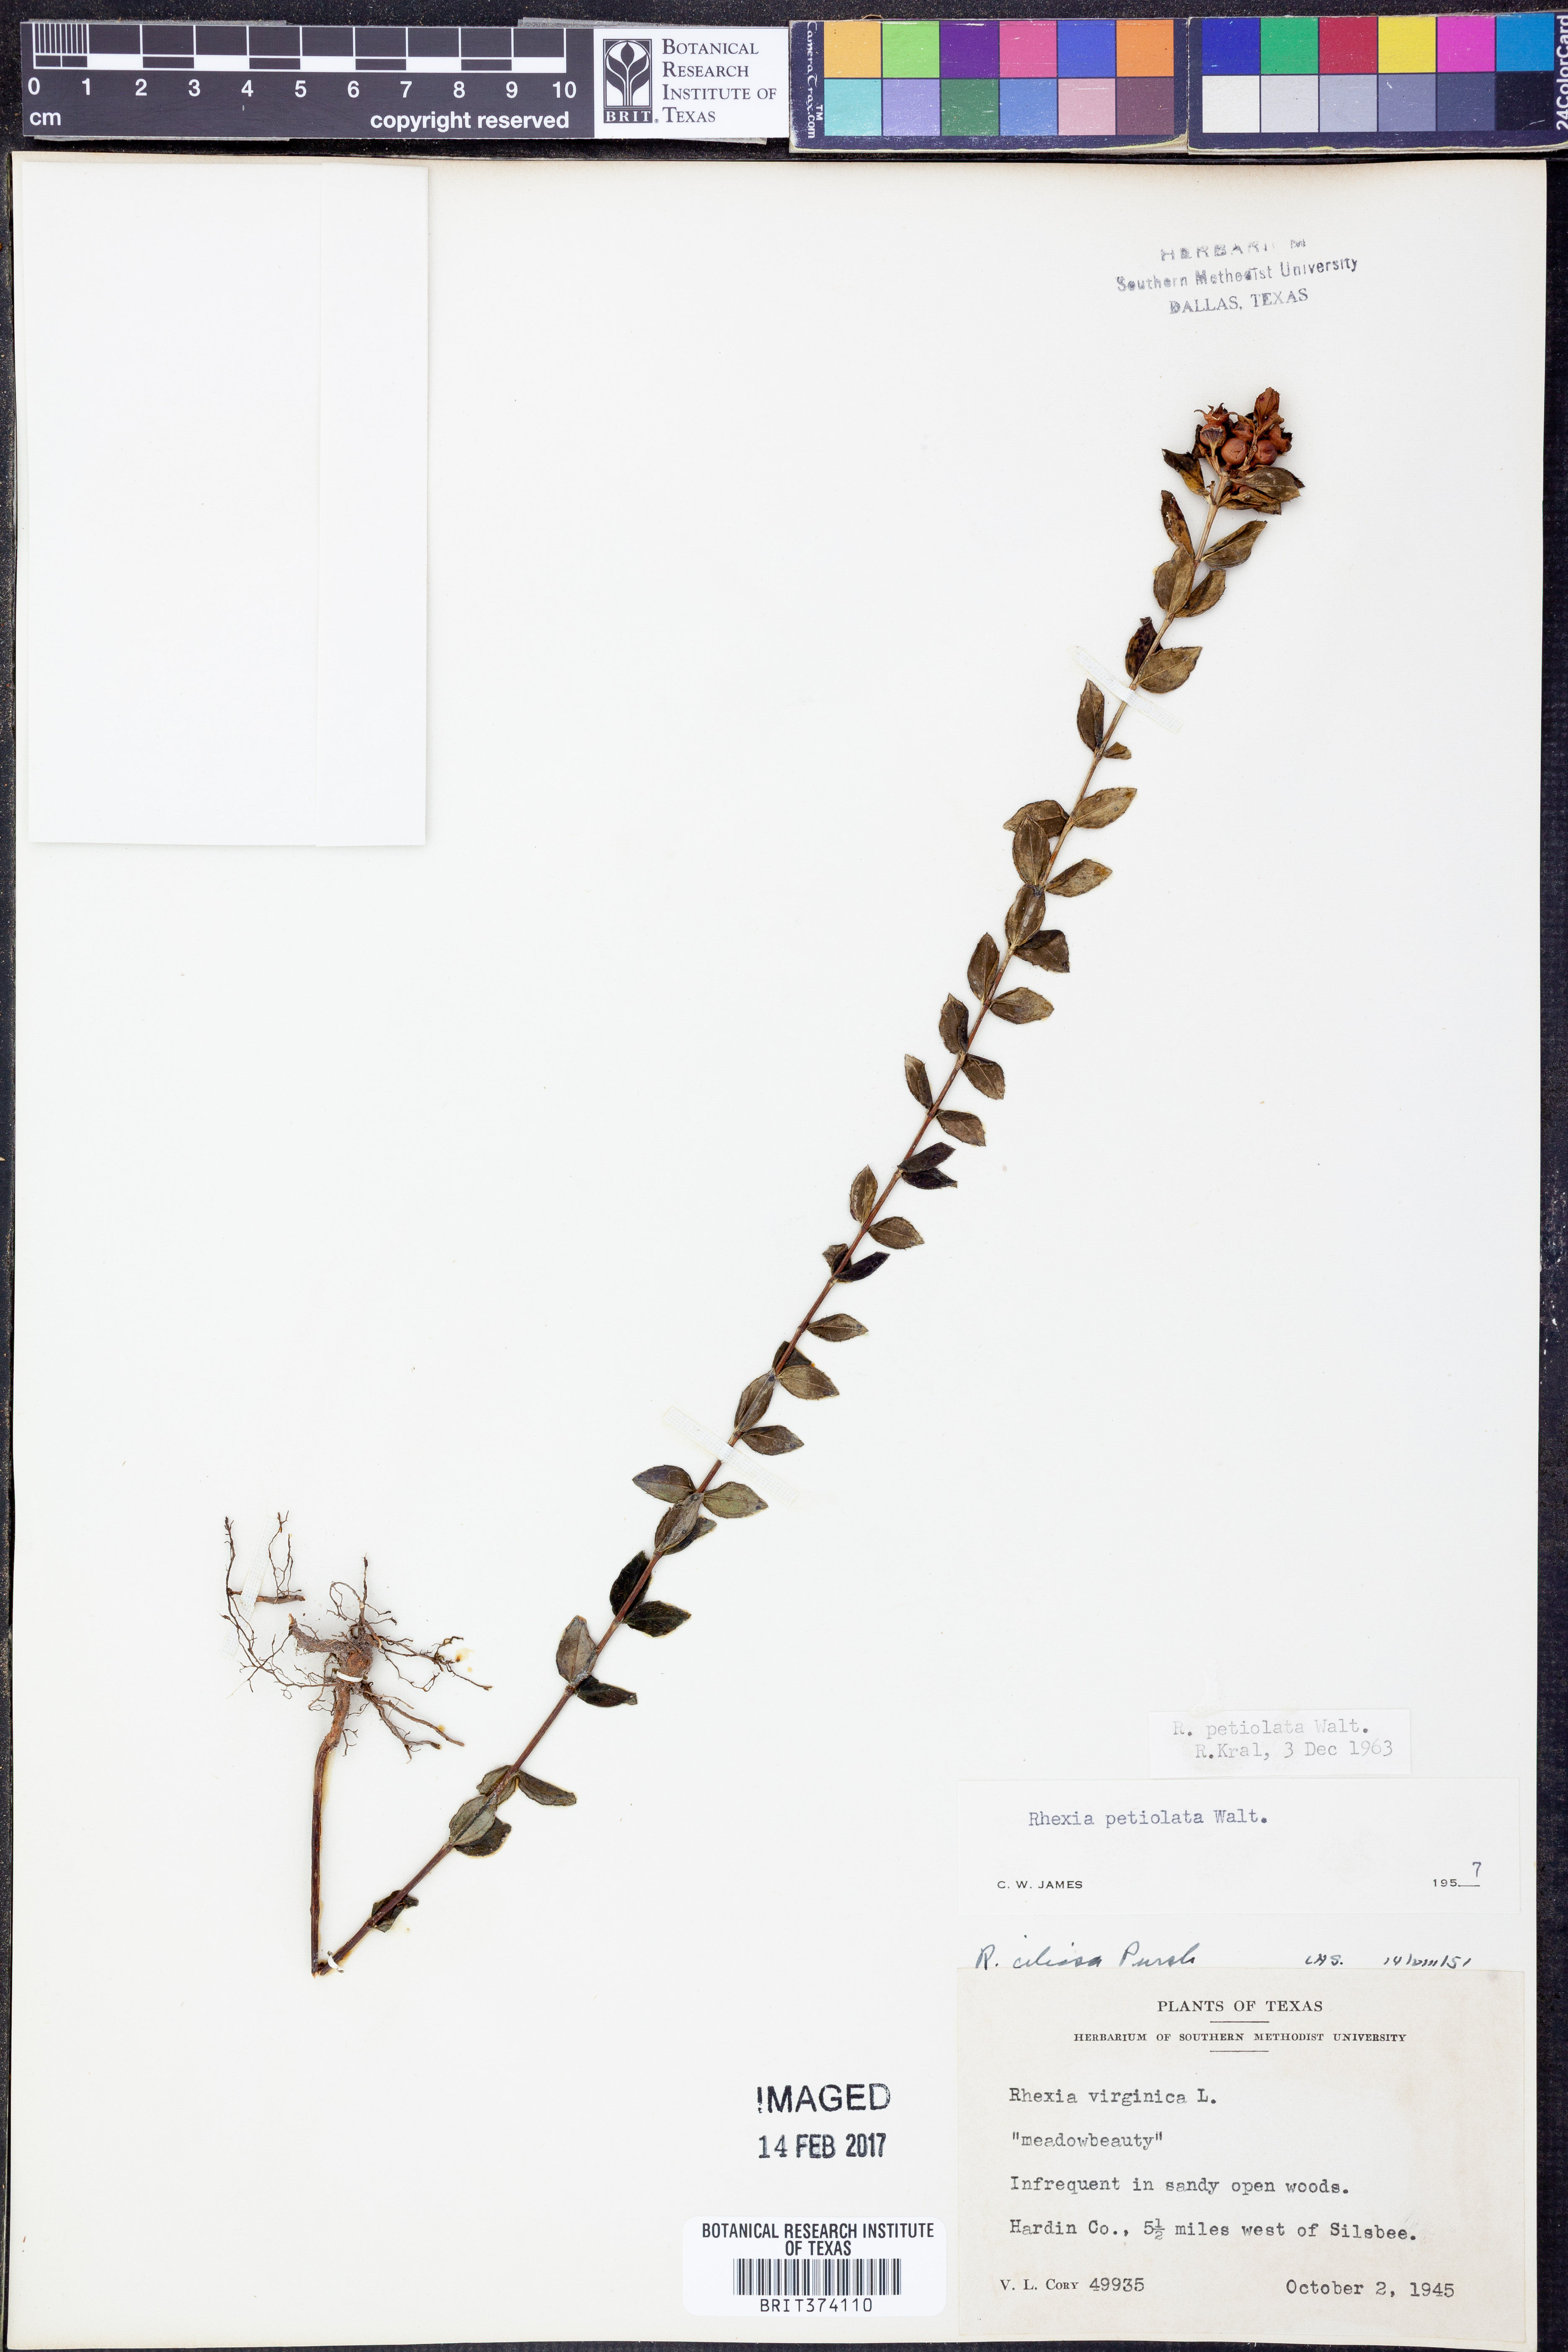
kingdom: Plantae
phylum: Tracheophyta
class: Magnoliopsida
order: Myrtales
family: Melastomataceae
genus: Rhexia
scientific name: Rhexia petiolata
